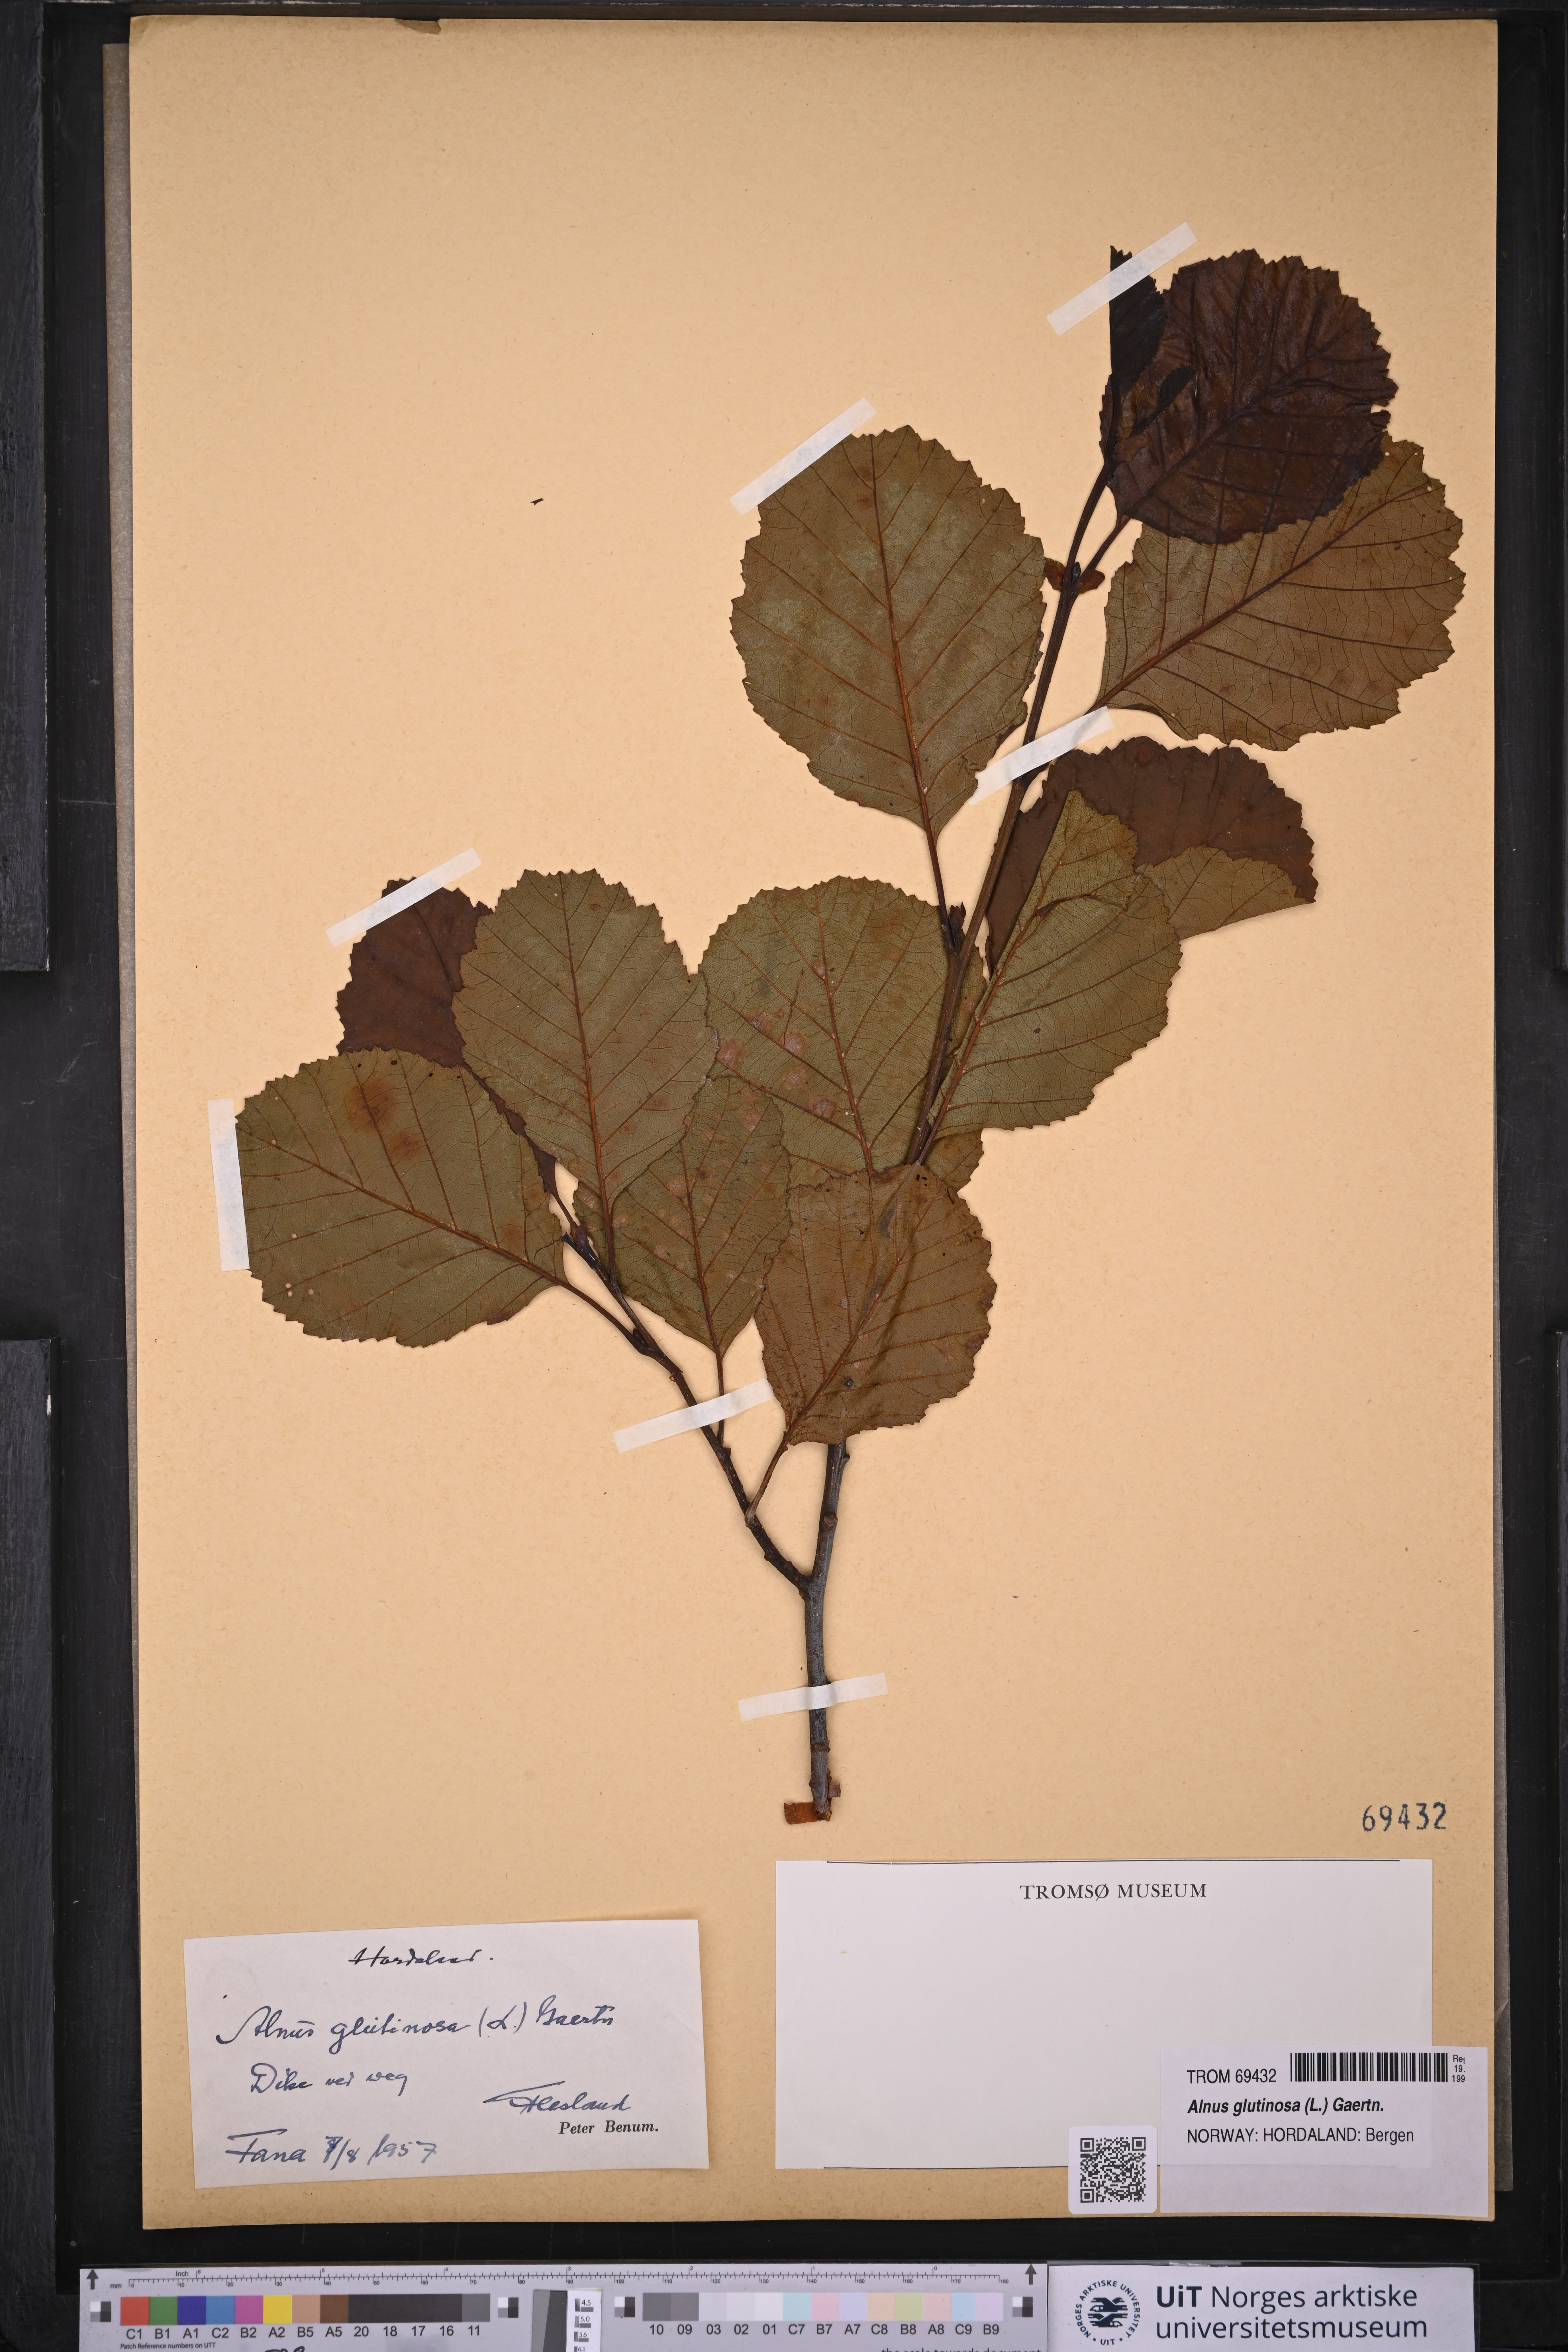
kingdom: Plantae
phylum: Tracheophyta
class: Magnoliopsida
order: Fagales
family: Betulaceae
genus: Alnus
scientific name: Alnus glutinosa
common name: Black alder
